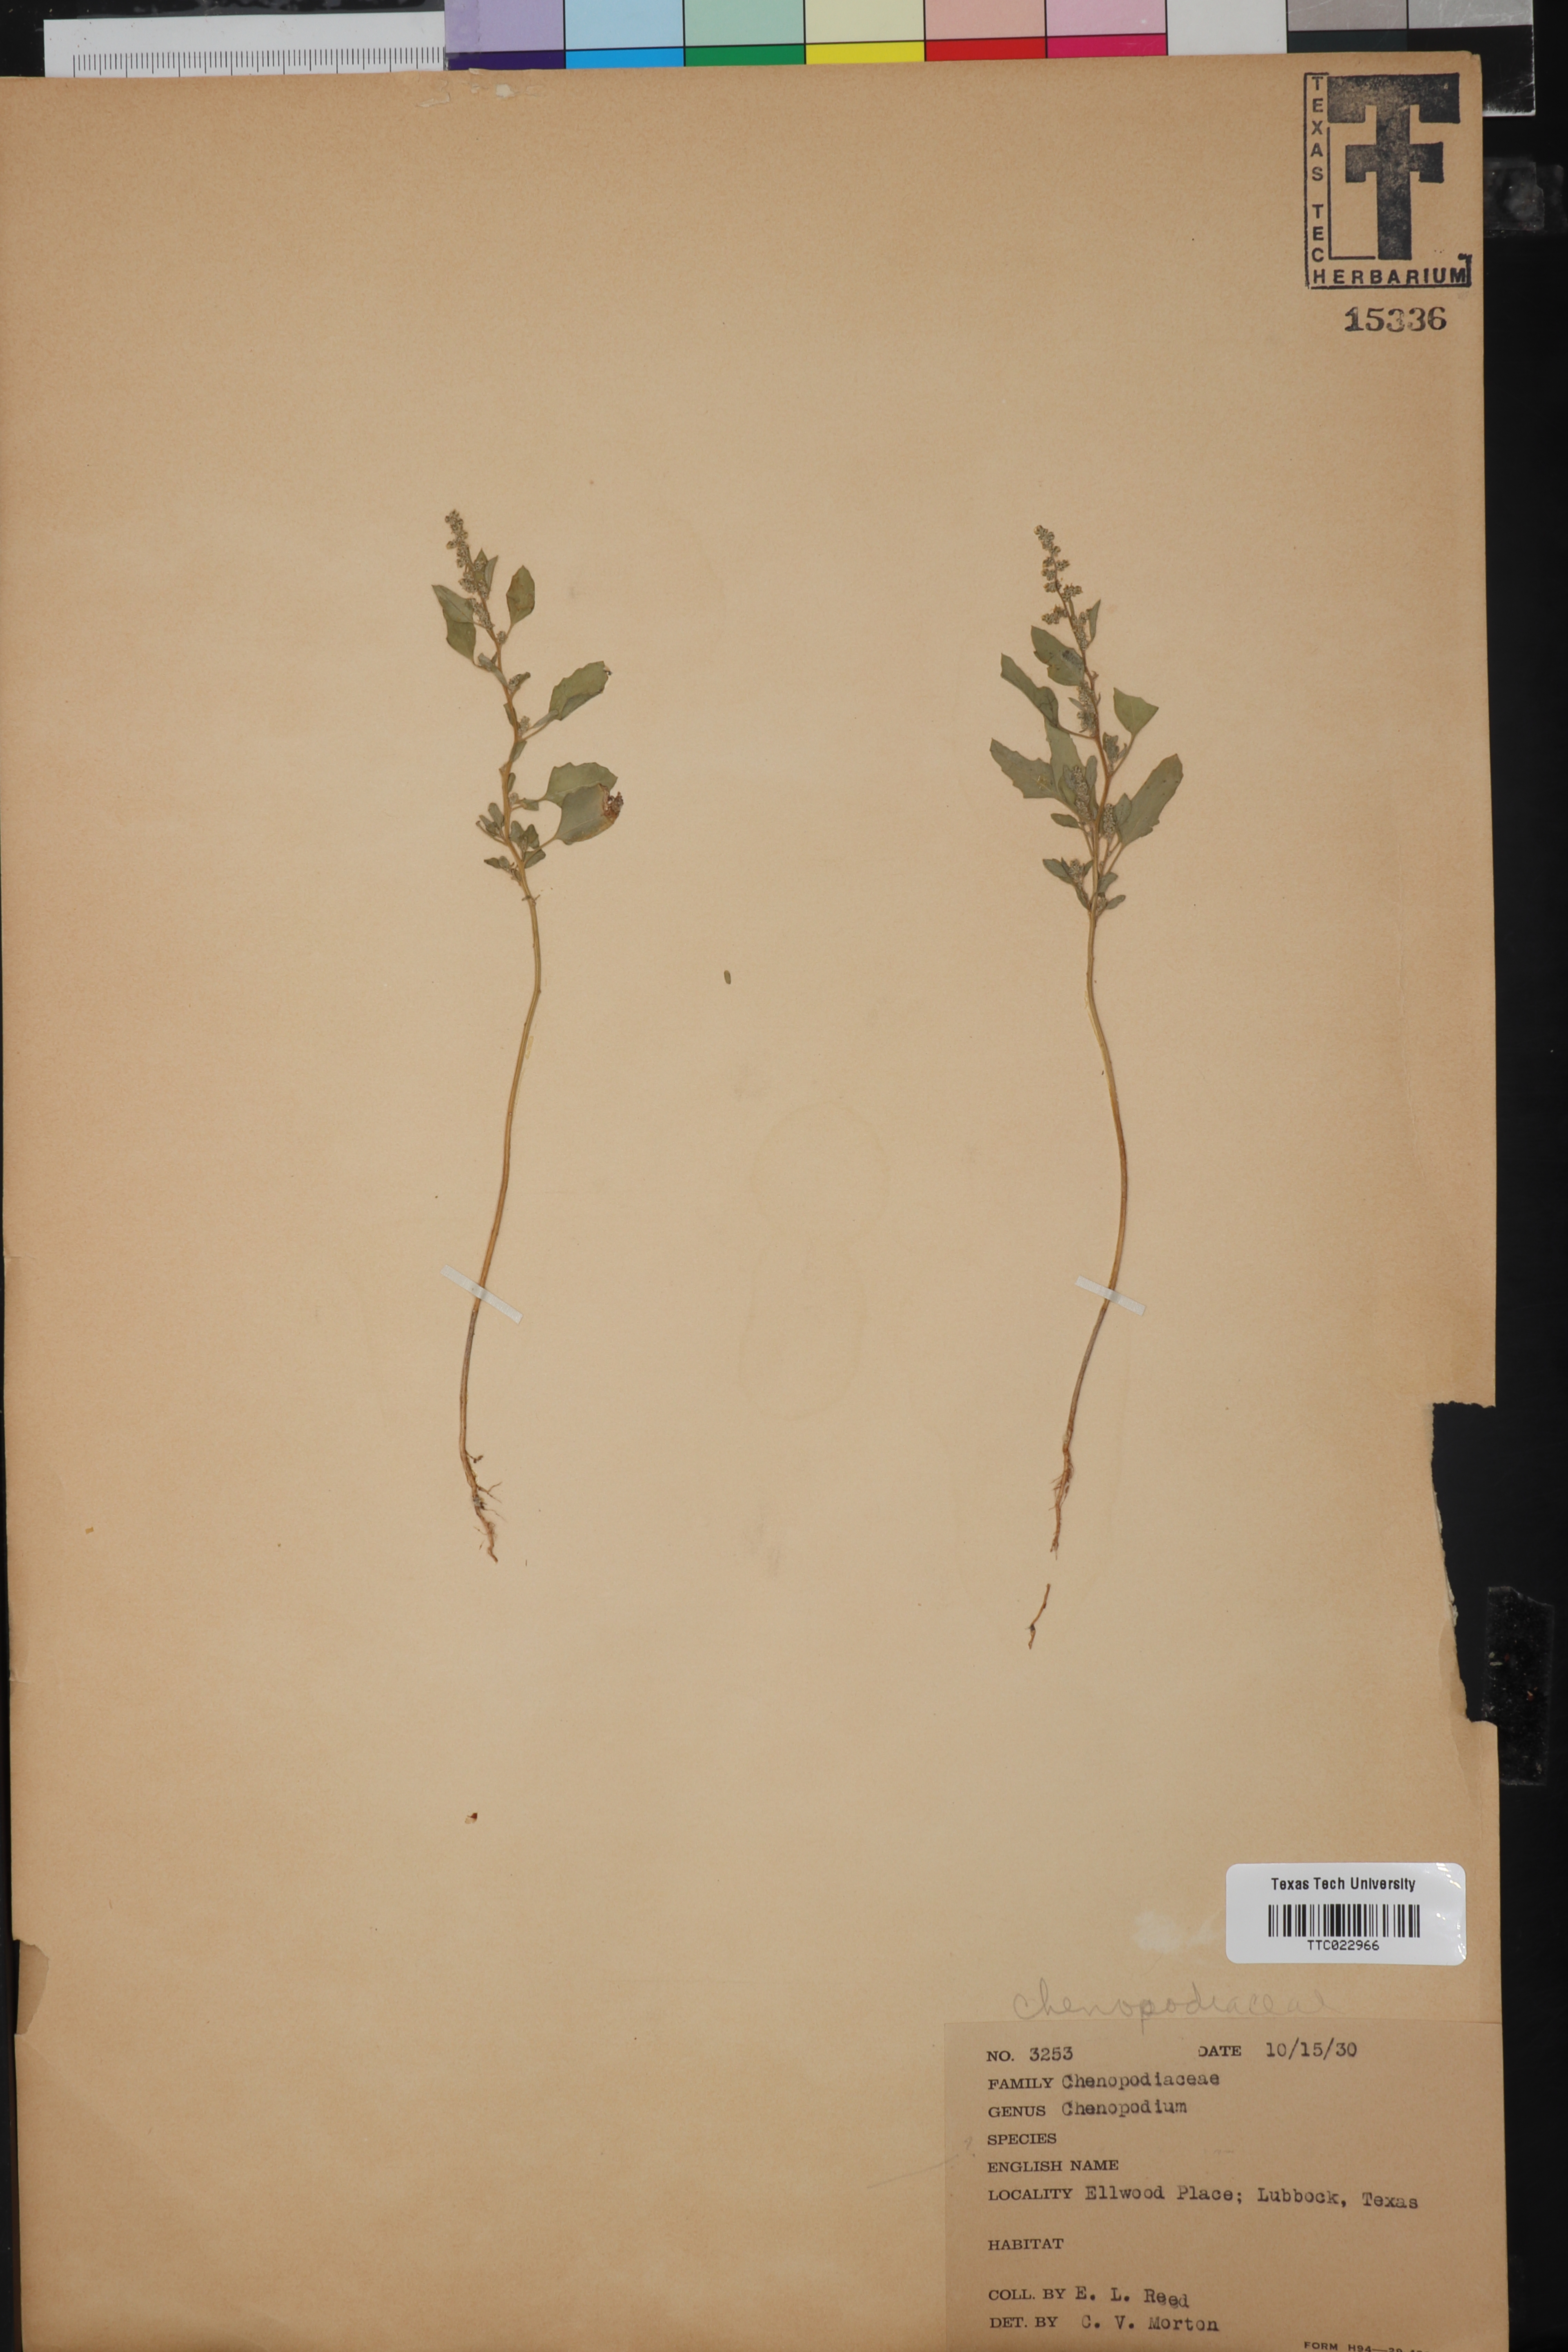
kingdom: Plantae
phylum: Tracheophyta
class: Magnoliopsida
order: Caryophyllales
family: Amaranthaceae
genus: Chenopodium
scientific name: Chenopodium
